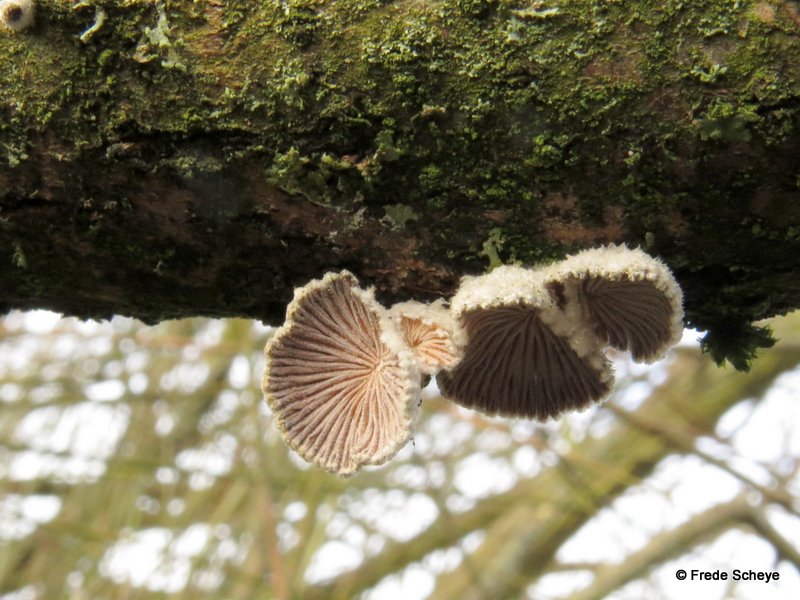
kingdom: Fungi
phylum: Basidiomycota
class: Agaricomycetes
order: Agaricales
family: Schizophyllaceae
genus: Schizophyllum
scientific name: Schizophyllum commune
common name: kløvblad
